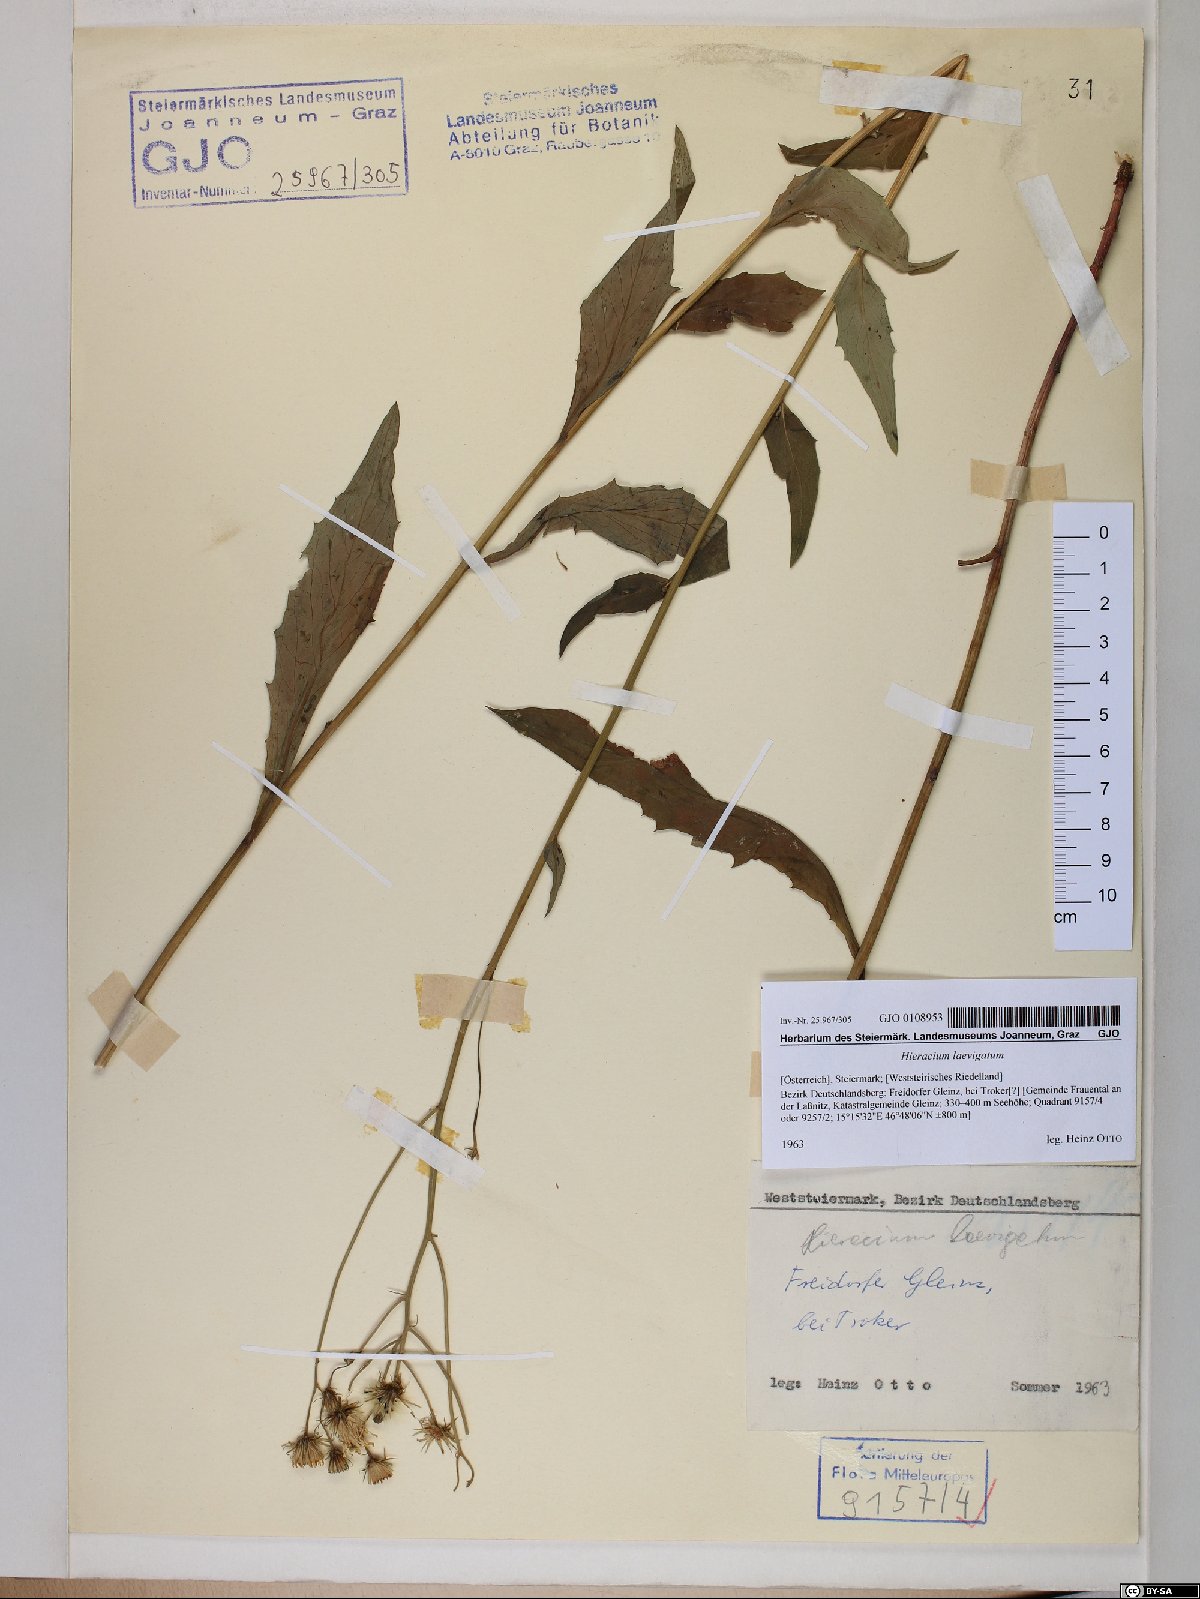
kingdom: Plantae
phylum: Tracheophyta
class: Magnoliopsida
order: Asterales
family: Asteraceae
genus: Hieracium
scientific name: Hieracium laevigatum
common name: Smooth hawkweed
